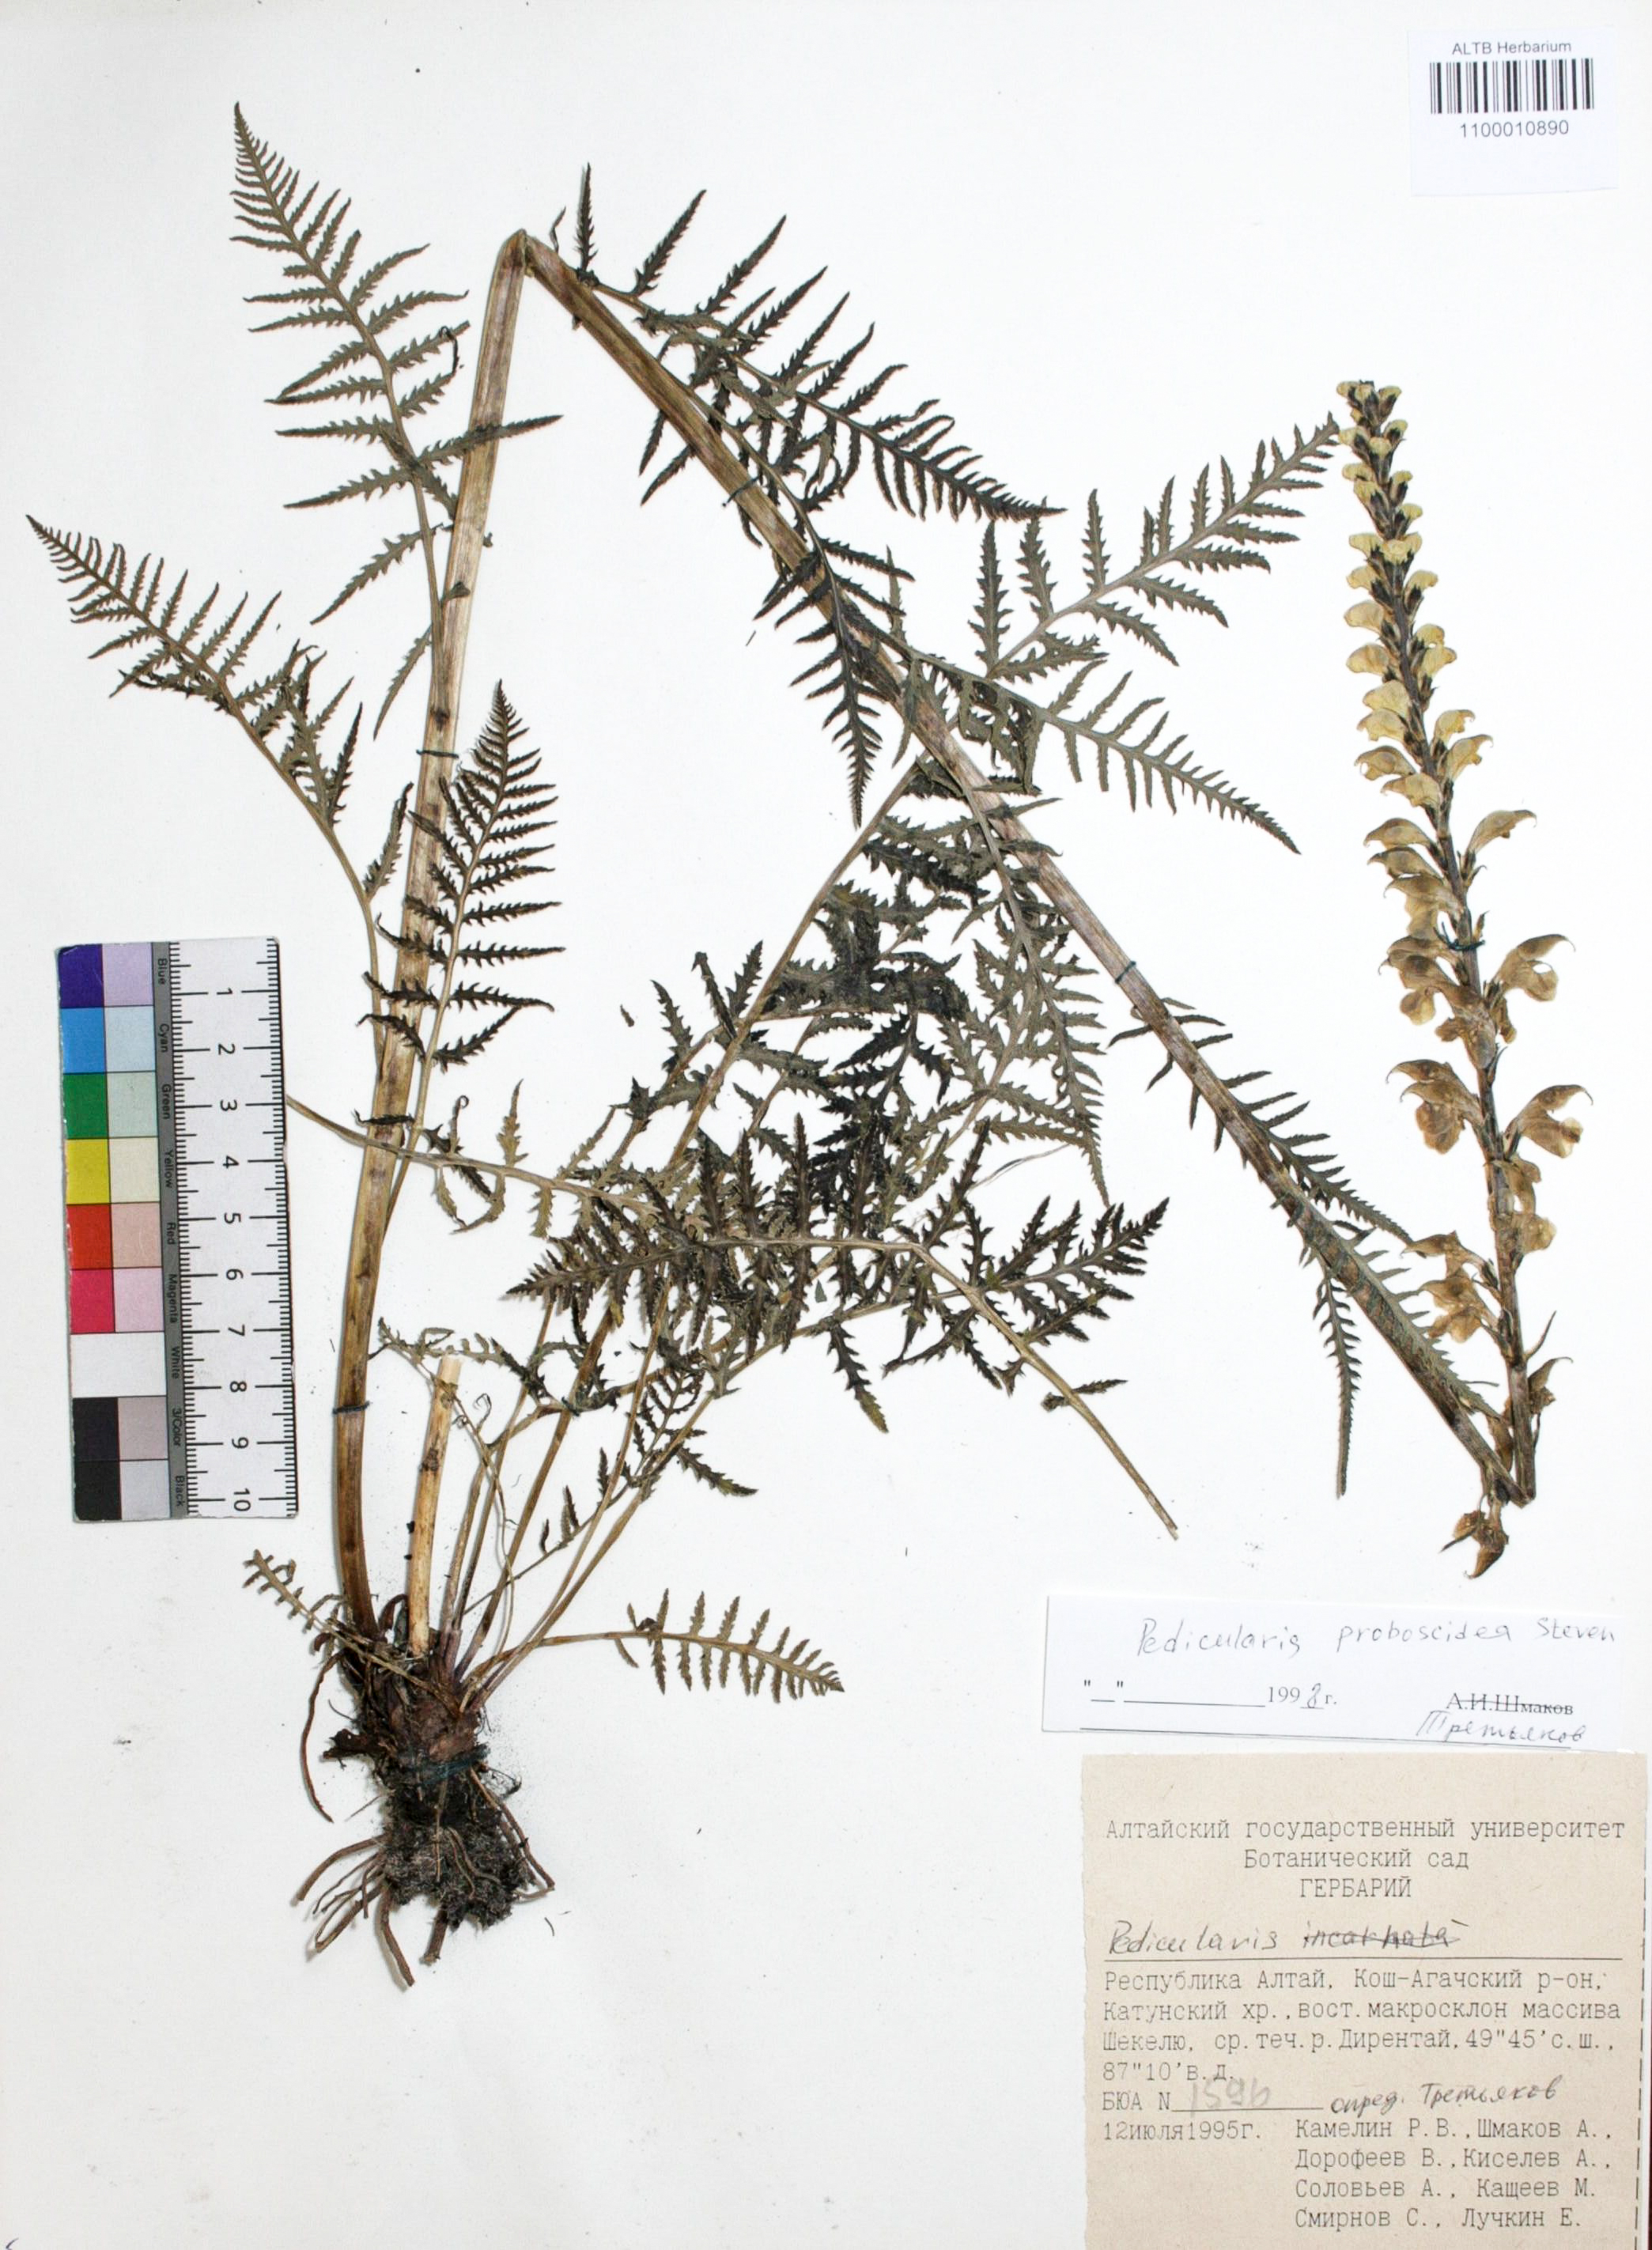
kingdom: Plantae
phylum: Tracheophyta
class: Magnoliopsida
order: Lamiales
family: Orobanchaceae
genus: Pedicularis
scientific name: Pedicularis proboscidea
